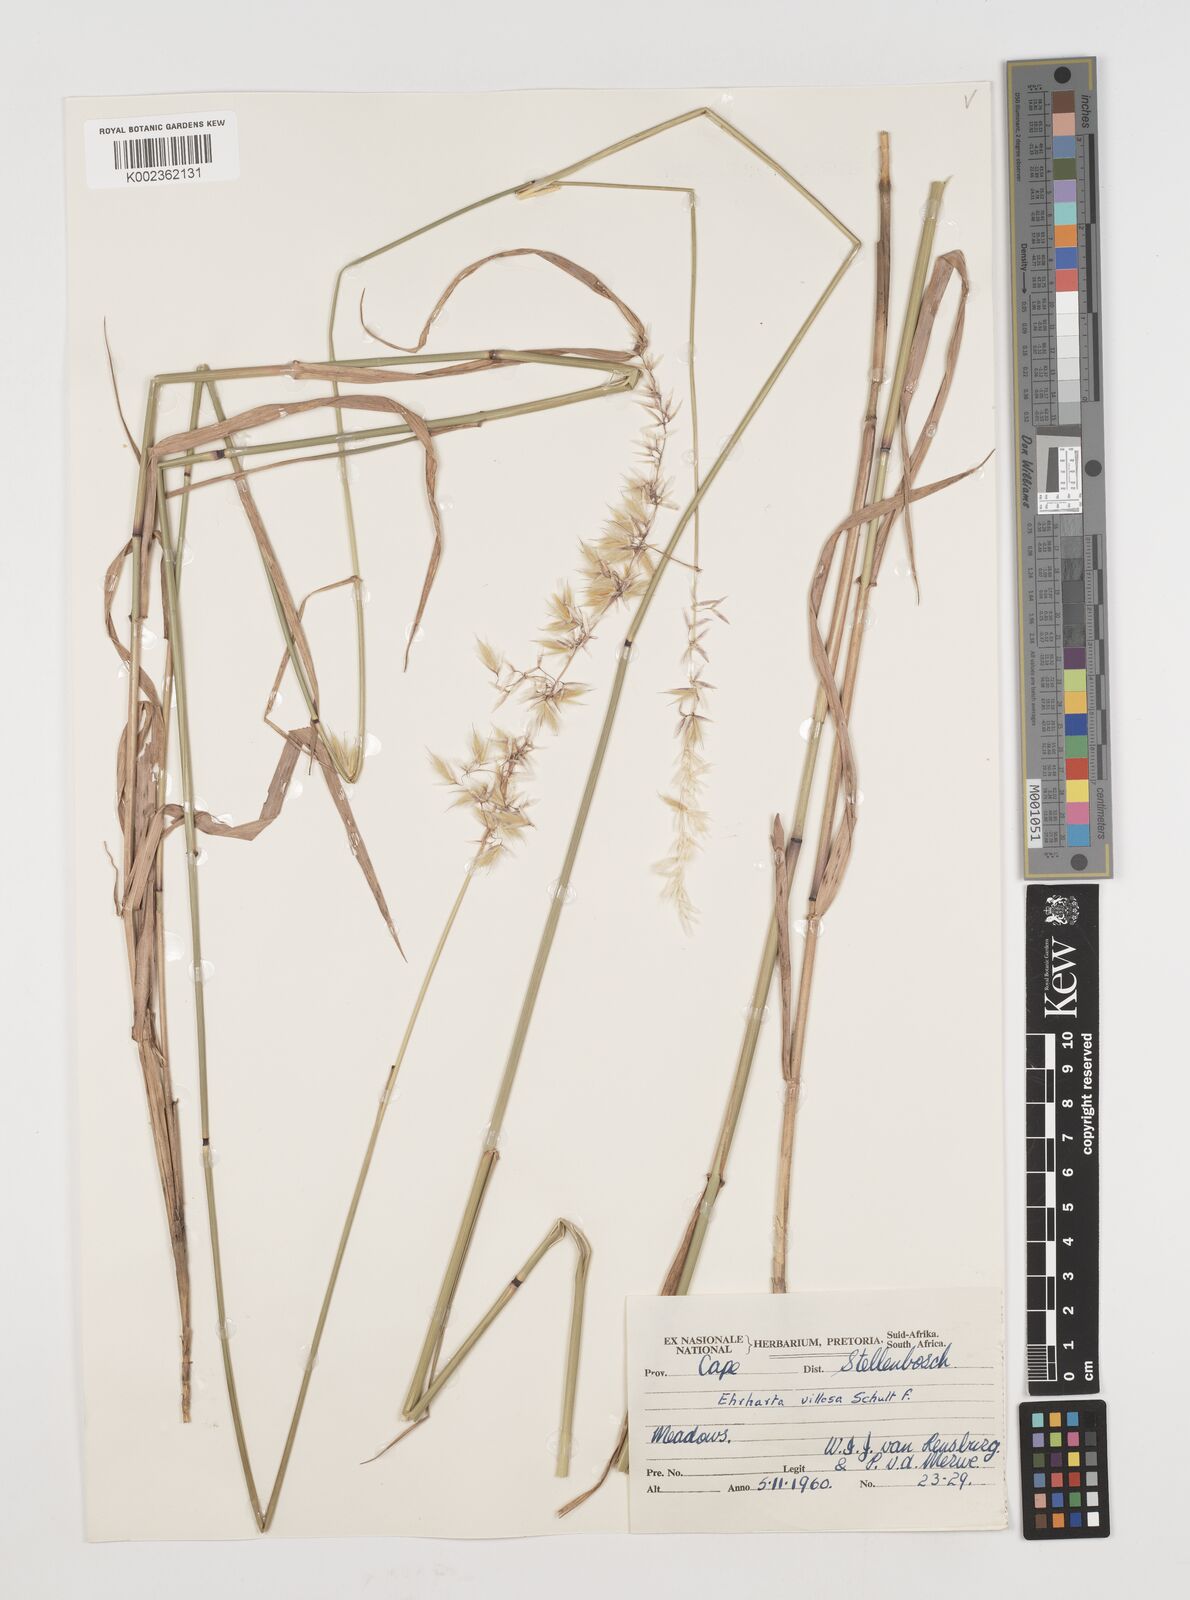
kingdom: Plantae
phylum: Tracheophyta
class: Liliopsida
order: Poales
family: Poaceae
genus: Ehrharta
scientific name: Ehrharta thunbergii
